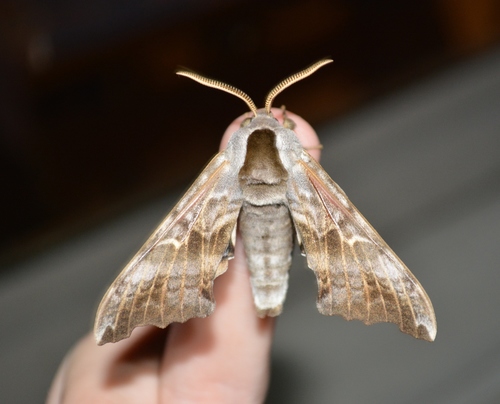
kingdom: Animalia
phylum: Arthropoda
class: Insecta
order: Lepidoptera
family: Sphingidae
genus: Smerinthus
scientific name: Smerinthus cerisyi
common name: Cerisy's sphinx moth
